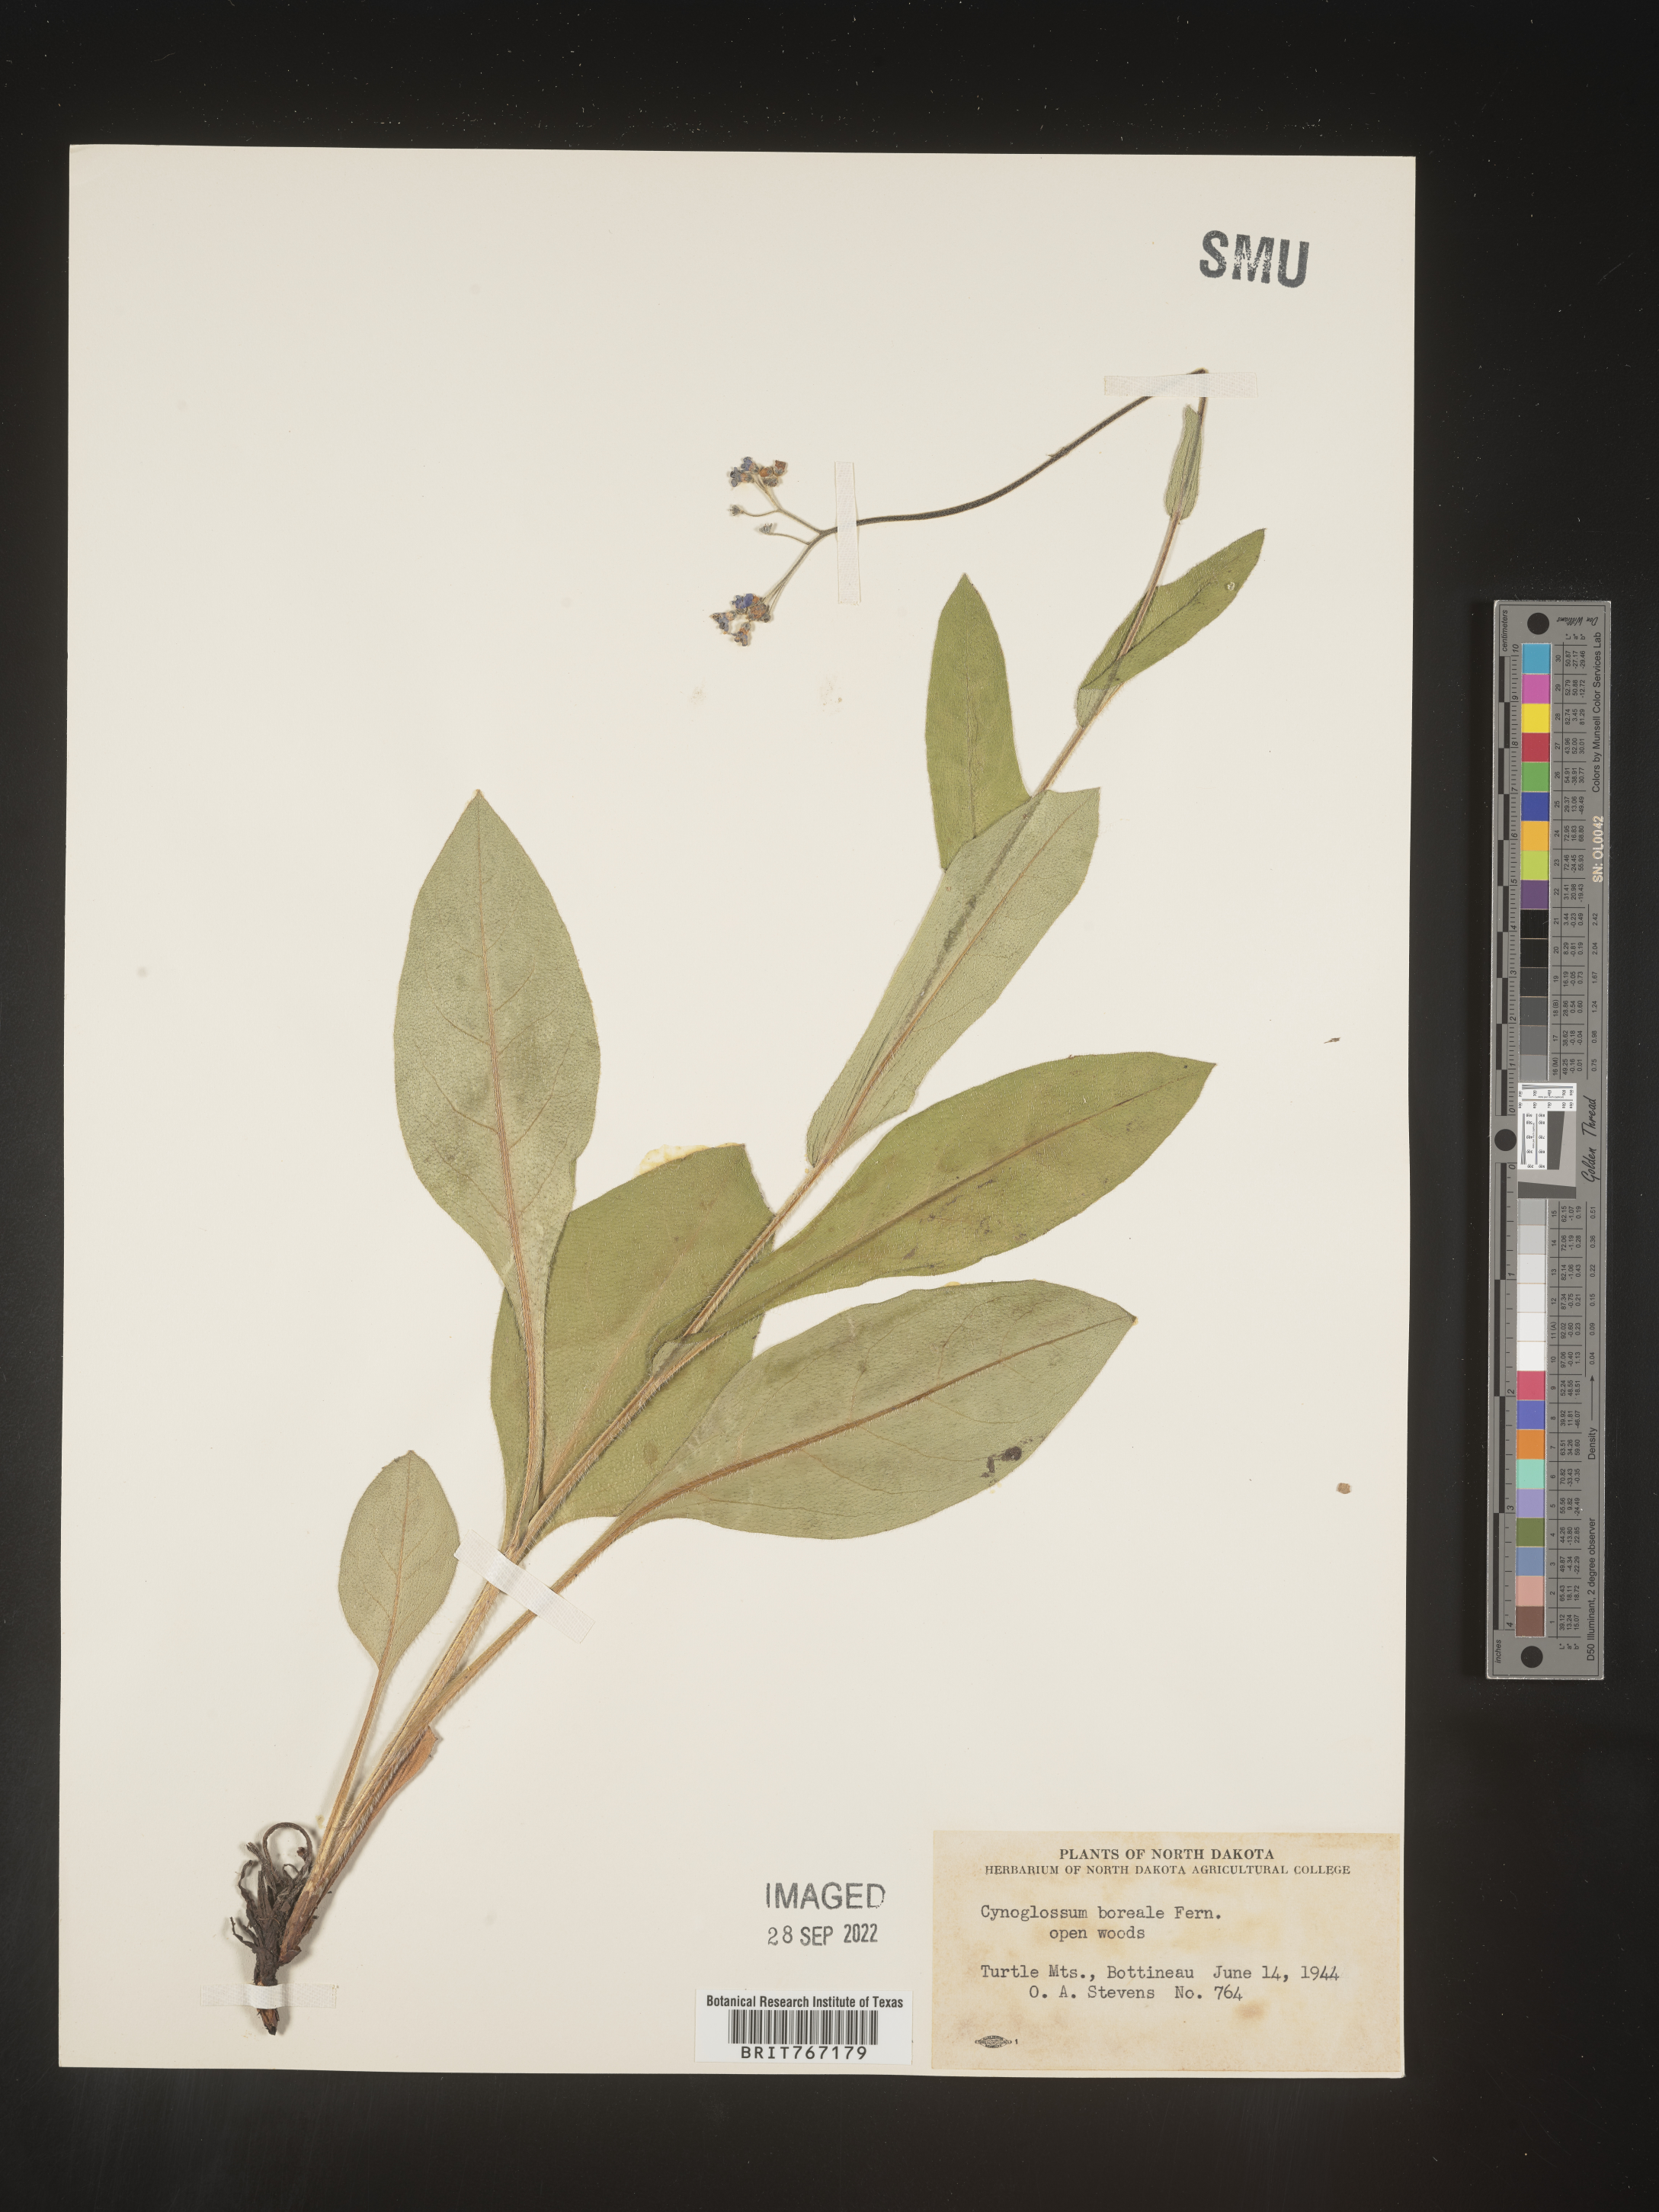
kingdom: Plantae
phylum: Tracheophyta
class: Magnoliopsida
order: Boraginales
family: Boraginaceae
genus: Cynoglossum
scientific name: Cynoglossum
